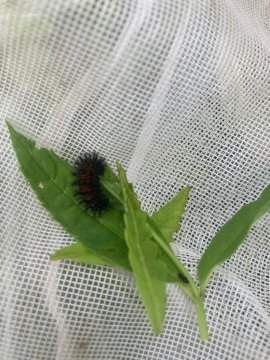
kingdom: Animalia
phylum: Arthropoda
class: Insecta
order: Lepidoptera
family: Nymphalidae
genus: Chlosyne
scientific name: Chlosyne harrisii
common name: Harris's Checkerspot
